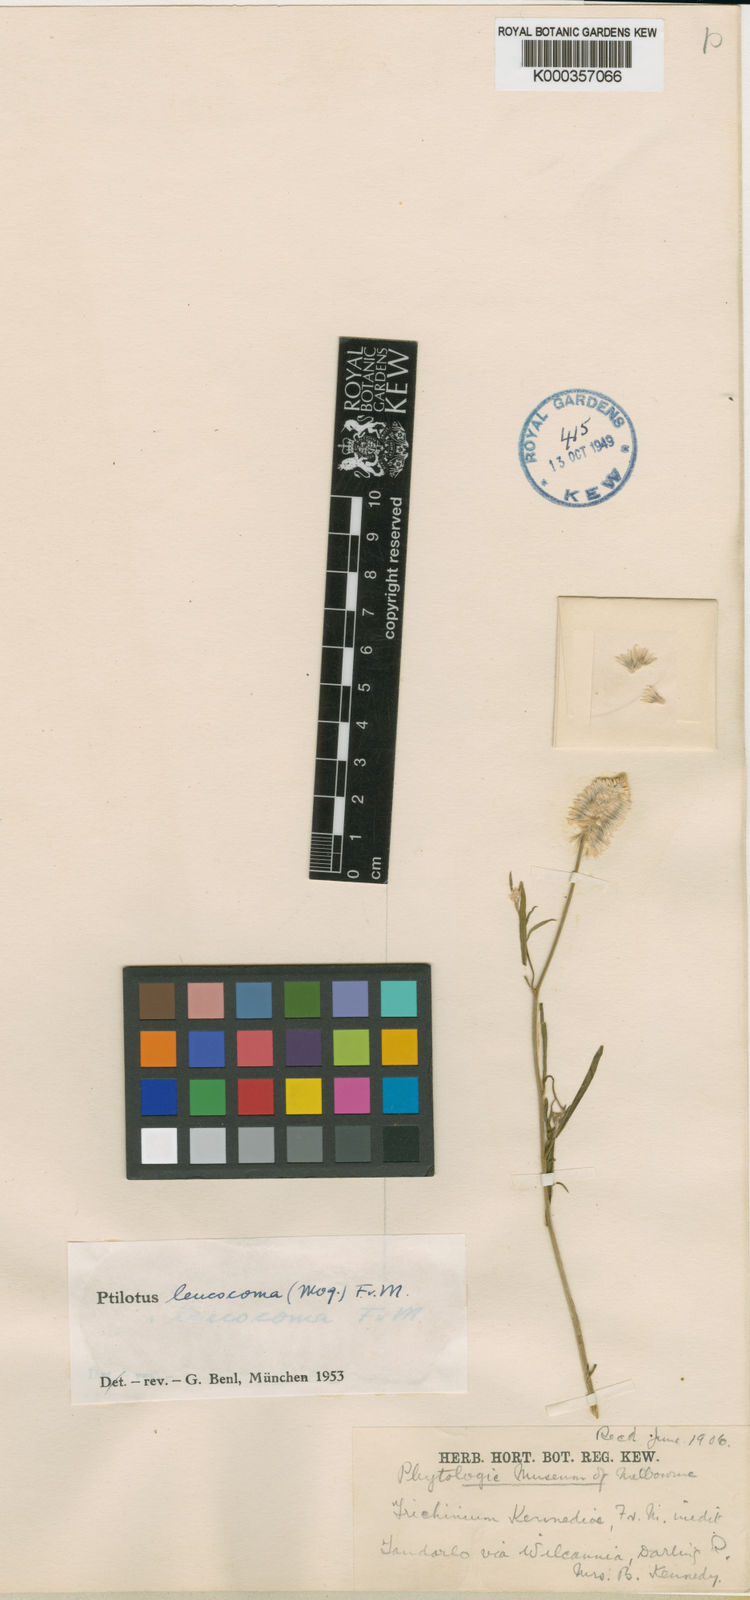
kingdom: Plantae
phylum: Tracheophyta
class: Magnoliopsida
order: Caryophyllales
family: Amaranthaceae
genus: Ptilotus
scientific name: Ptilotus leucocoma
